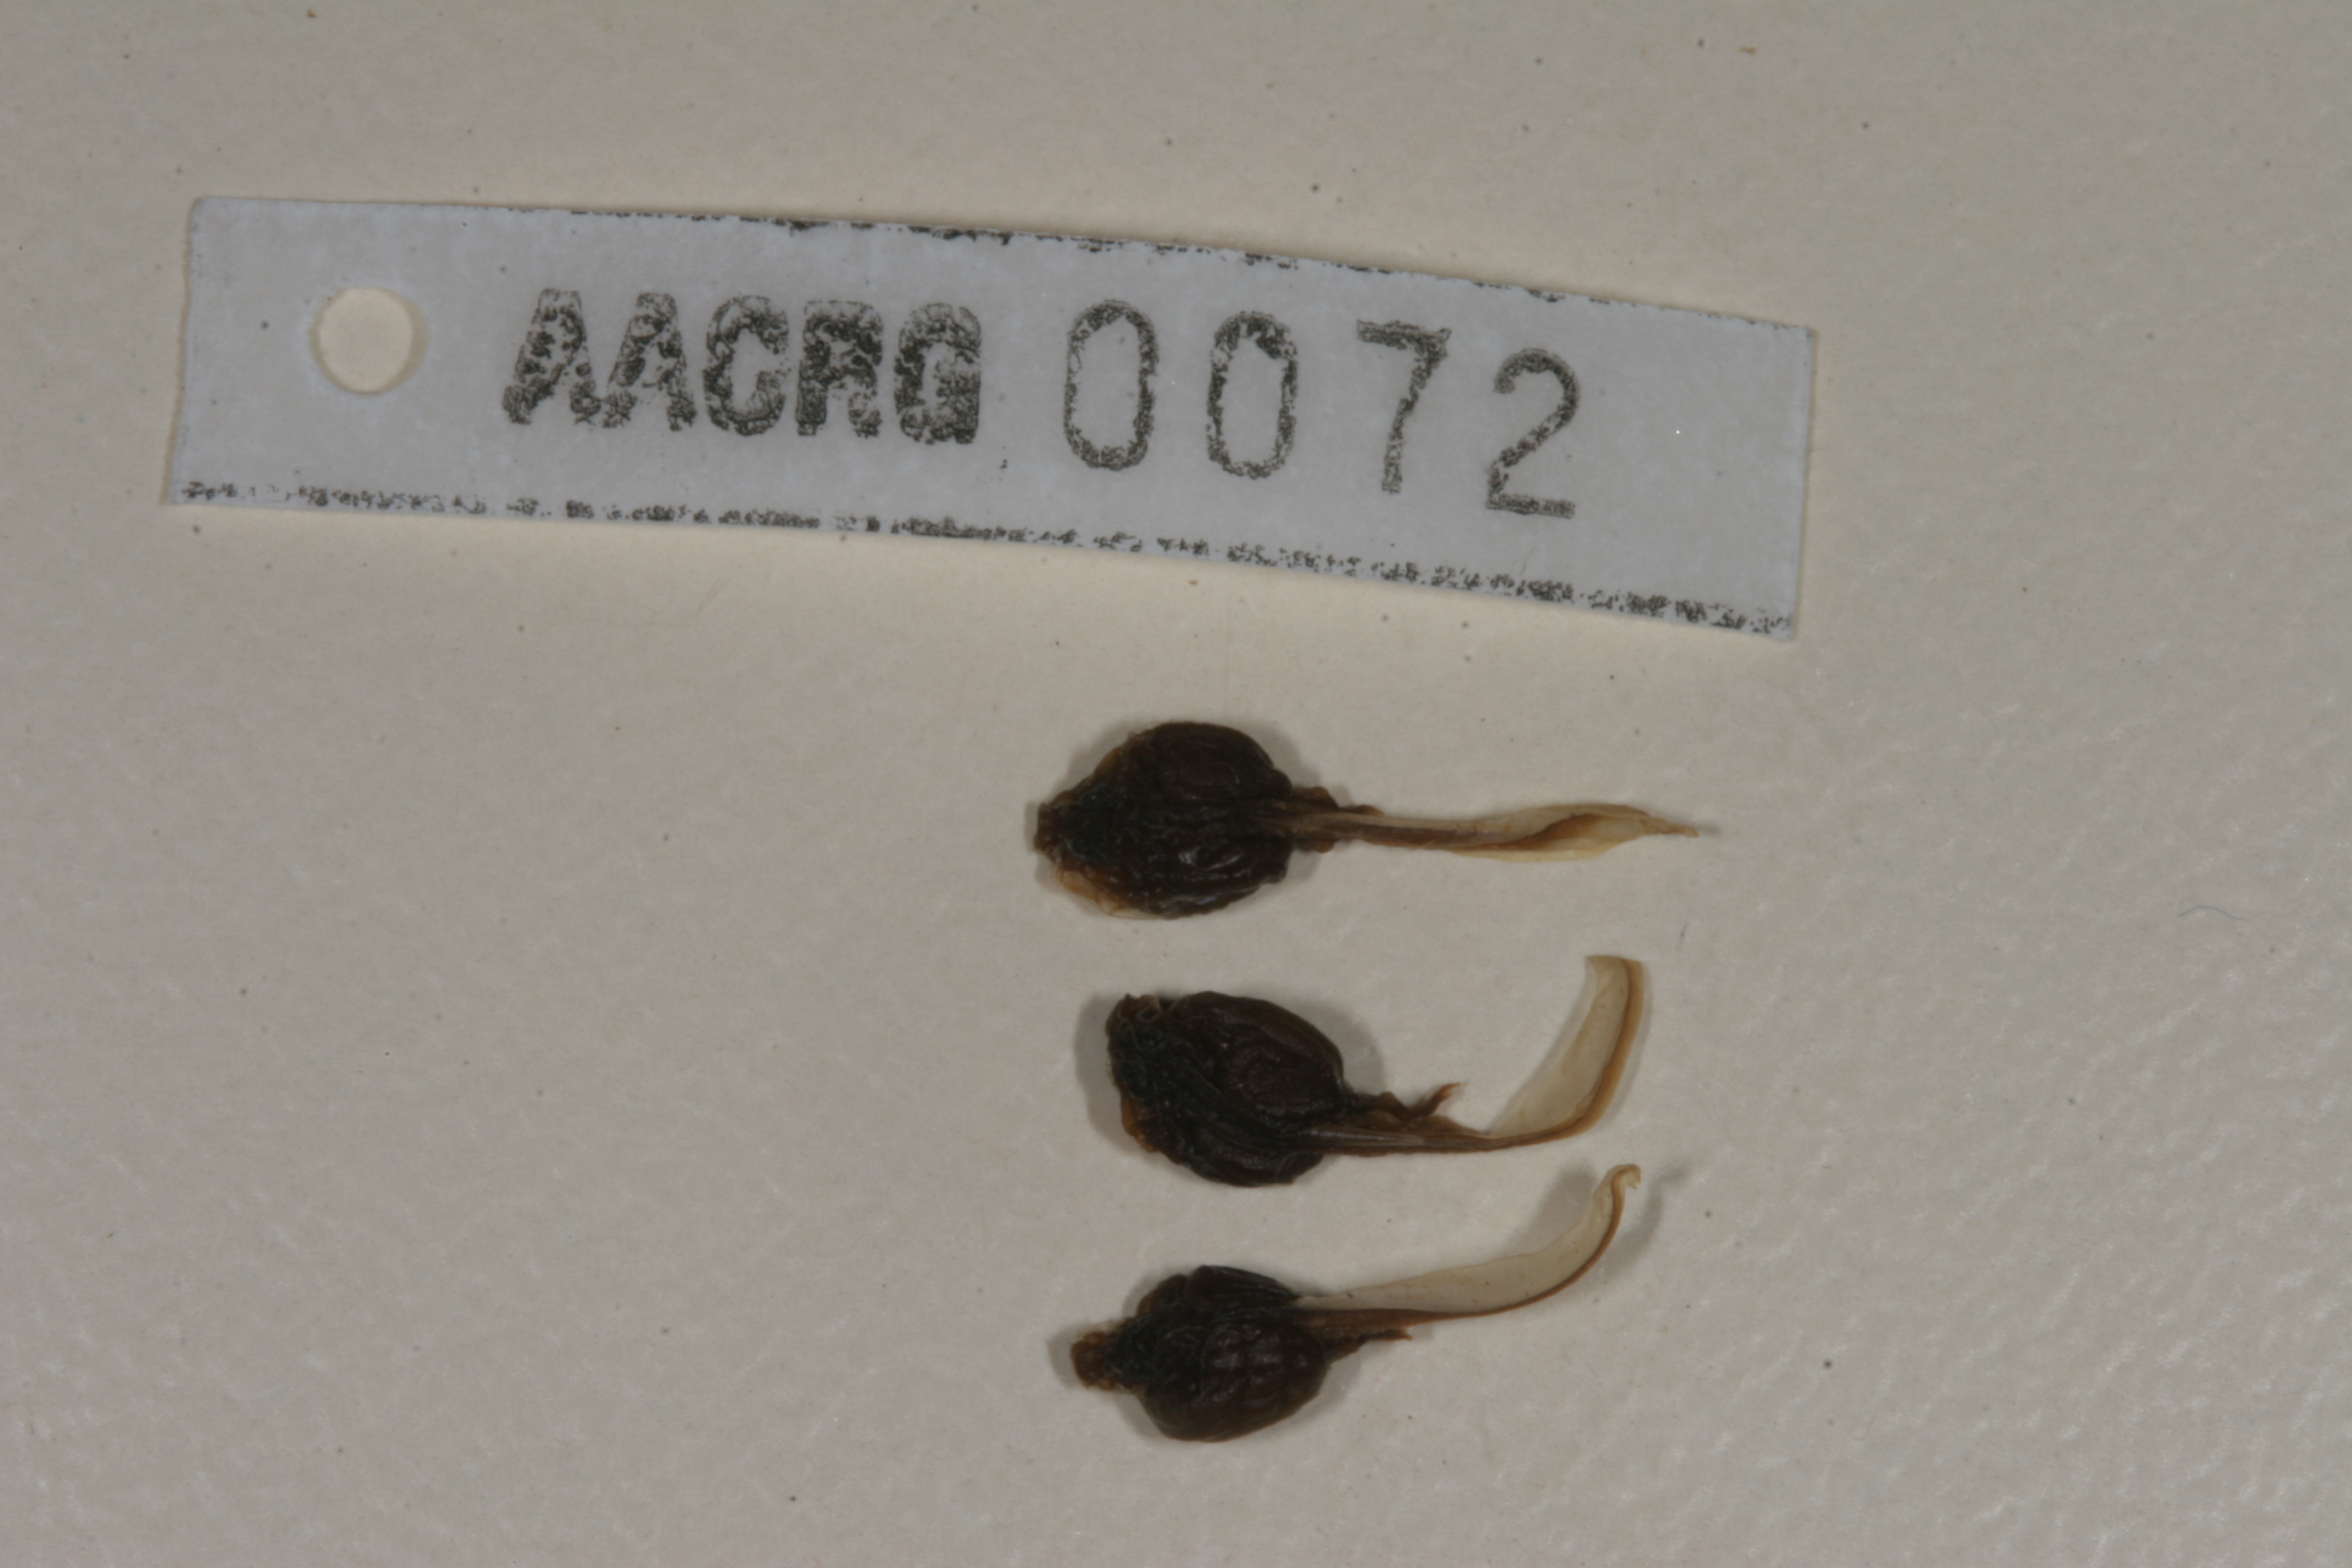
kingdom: Animalia
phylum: Chordata
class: Amphibia
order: Anura
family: Bufonidae
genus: Poyntonophrynus
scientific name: Poyntonophrynus vertebralis
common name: Southern pygmy toad
